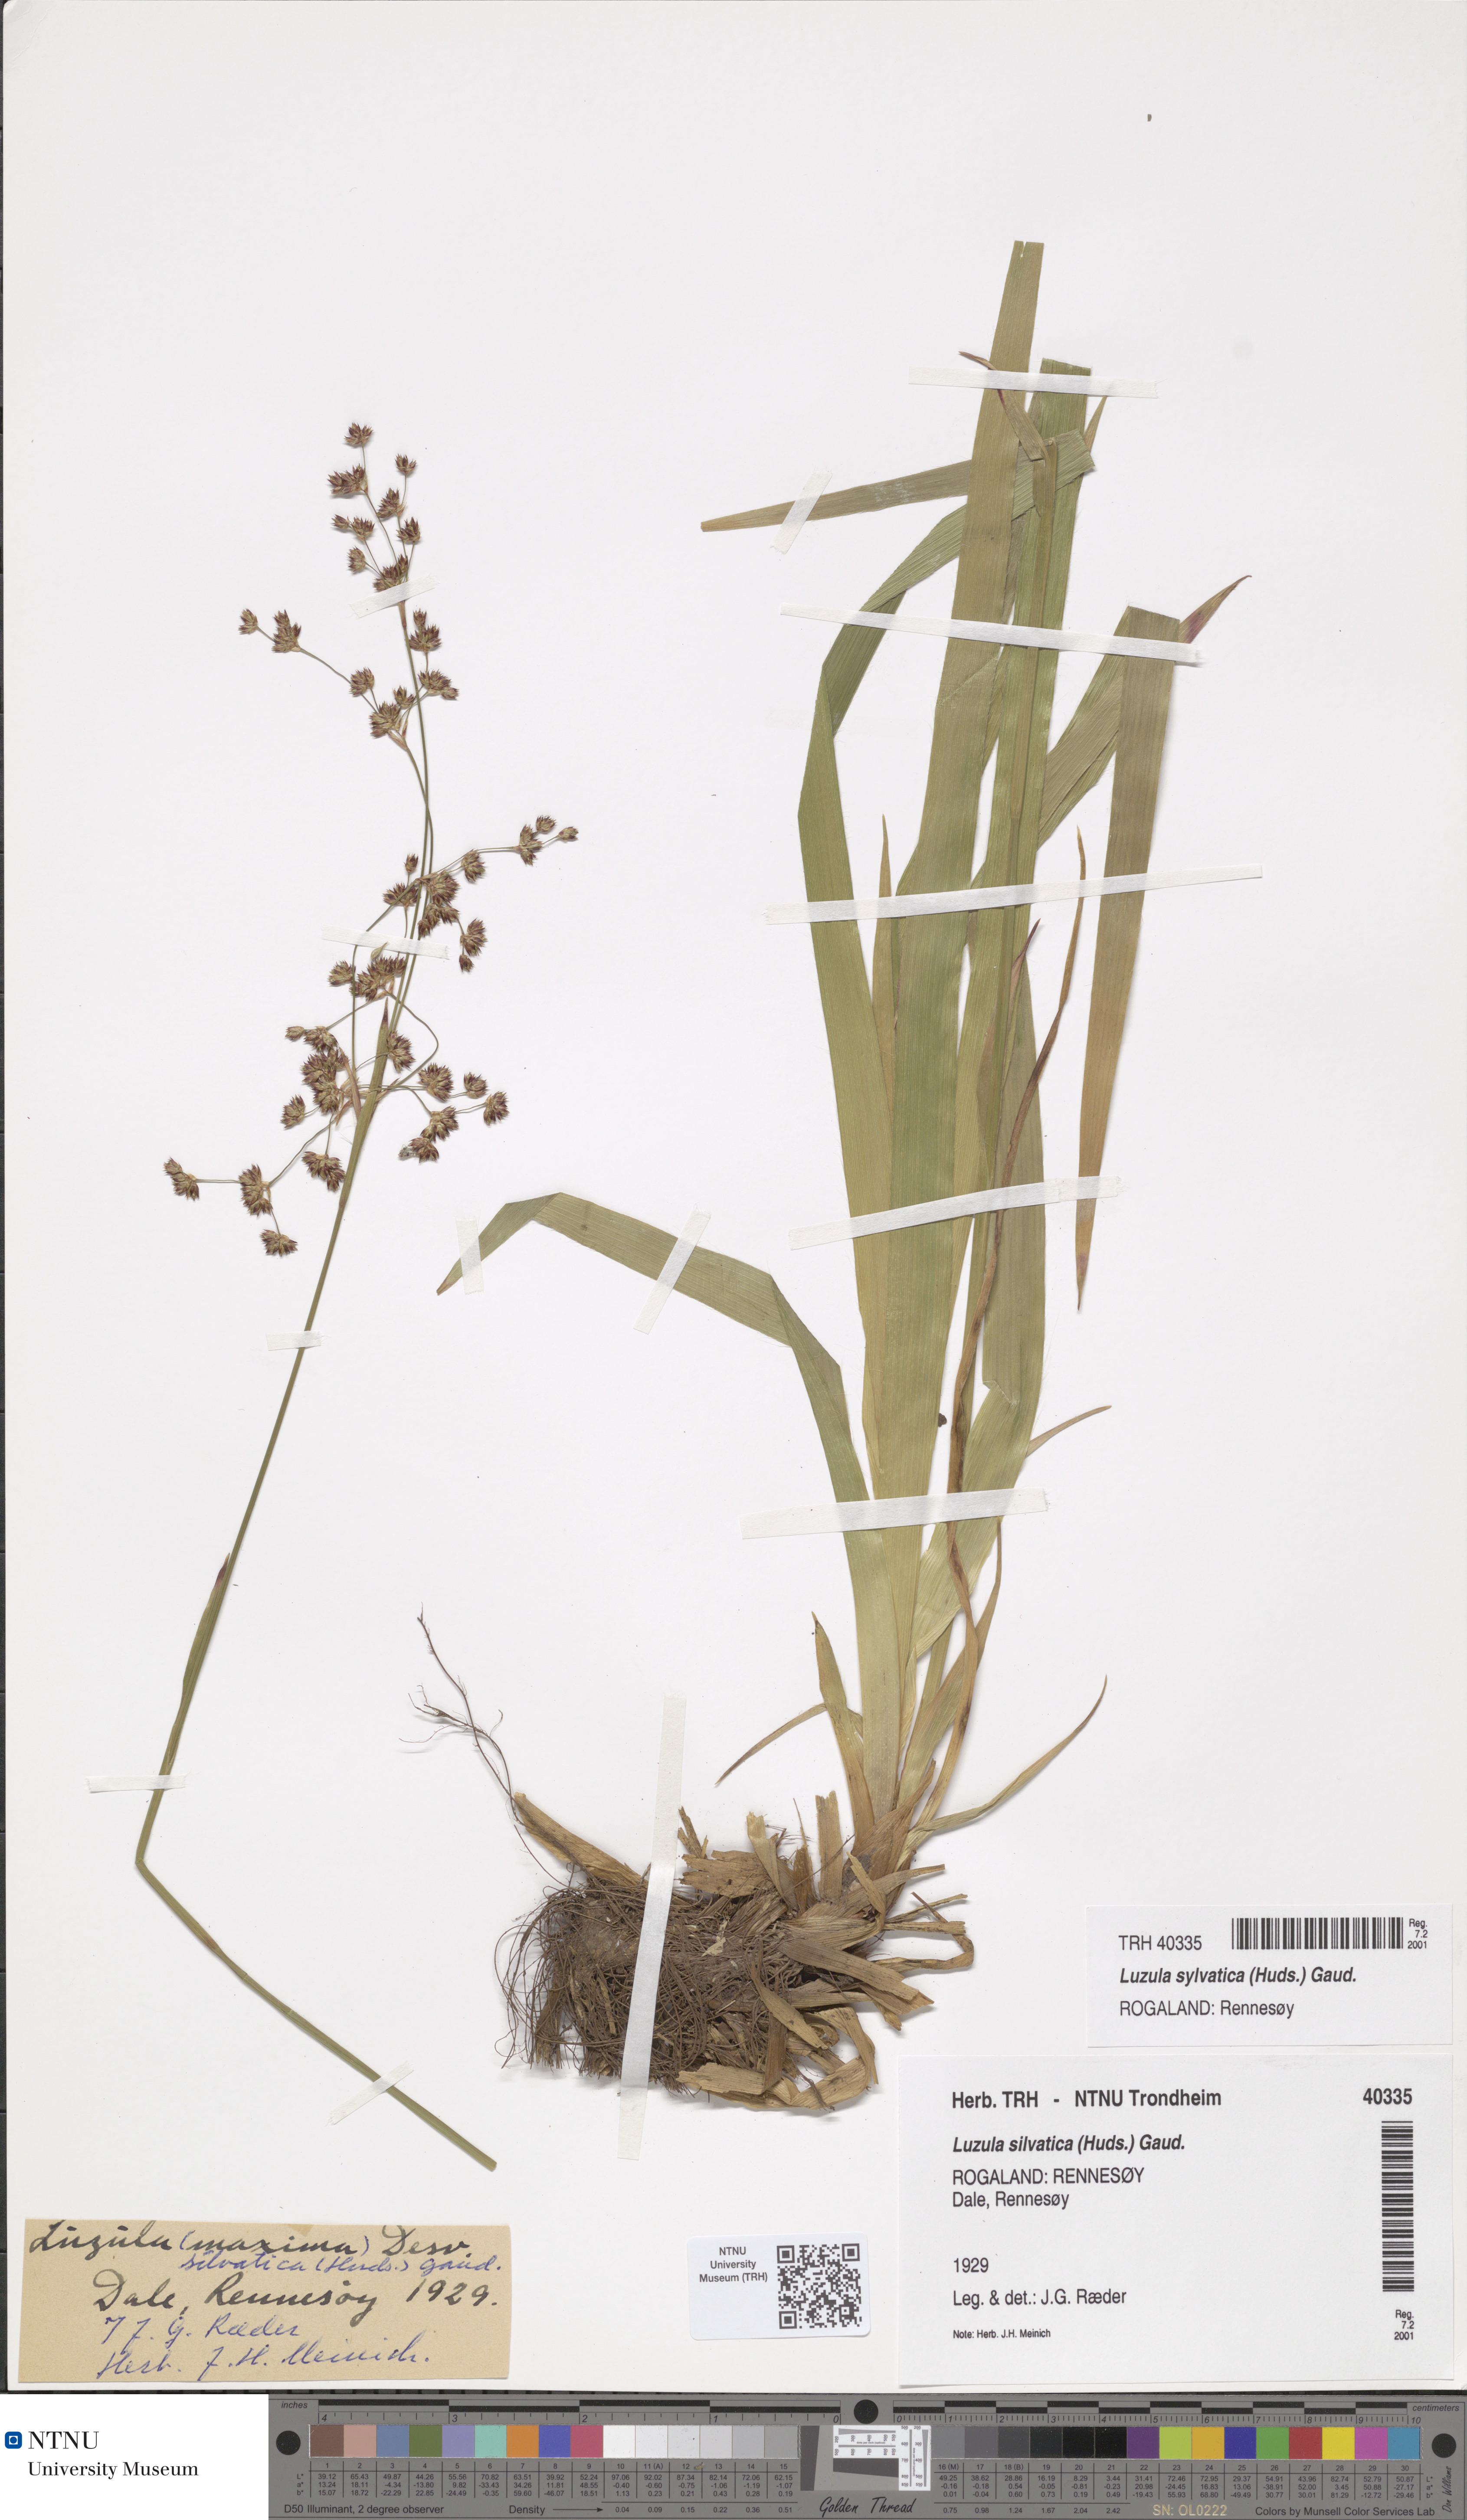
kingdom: Plantae
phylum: Tracheophyta
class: Liliopsida
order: Poales
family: Juncaceae
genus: Luzula
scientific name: Luzula sylvatica
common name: Great wood-rush
